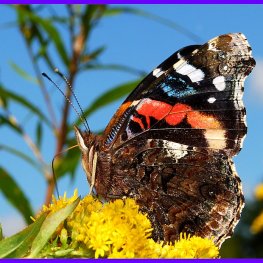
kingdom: Animalia
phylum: Arthropoda
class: Insecta
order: Lepidoptera
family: Nymphalidae
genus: Vanessa
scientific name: Vanessa atalanta
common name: Red Admiral
